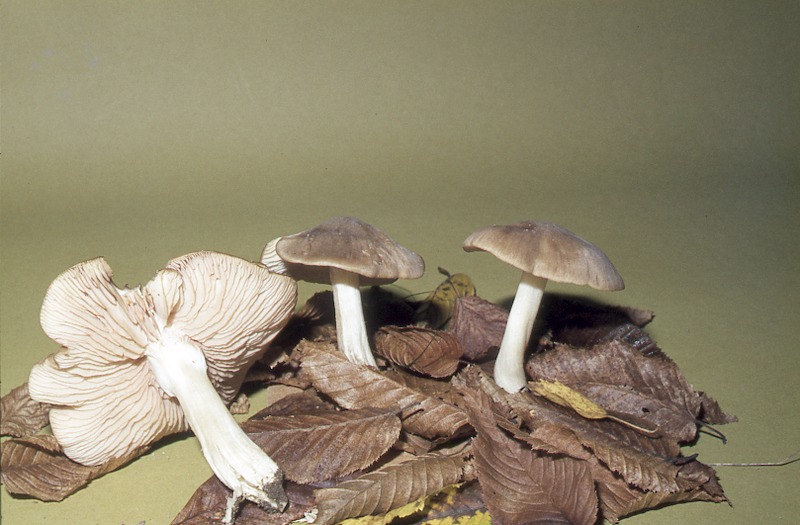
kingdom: Fungi
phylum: Basidiomycota
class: Agaricomycetes
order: Agaricales
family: Entolomataceae
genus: Entoloma
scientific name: Entoloma rhodopolium
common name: Wood pinkgill
